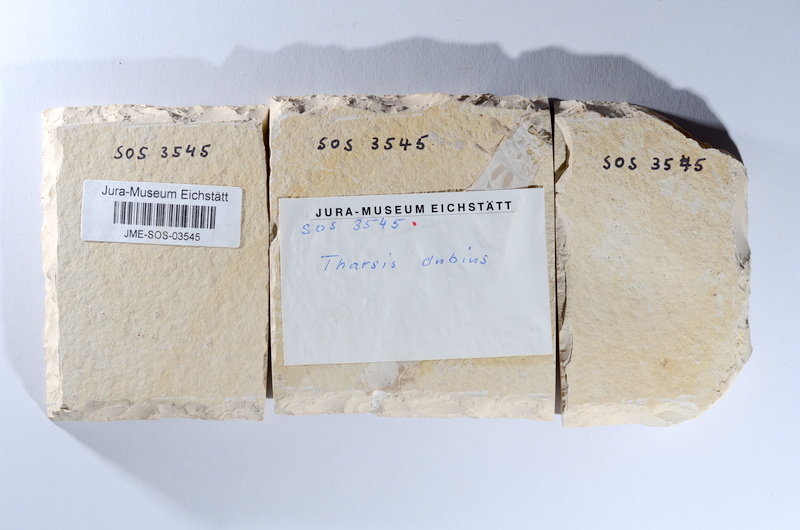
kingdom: Animalia
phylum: Chordata
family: Ascalaboidae
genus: Tharsis
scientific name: Tharsis dubius
